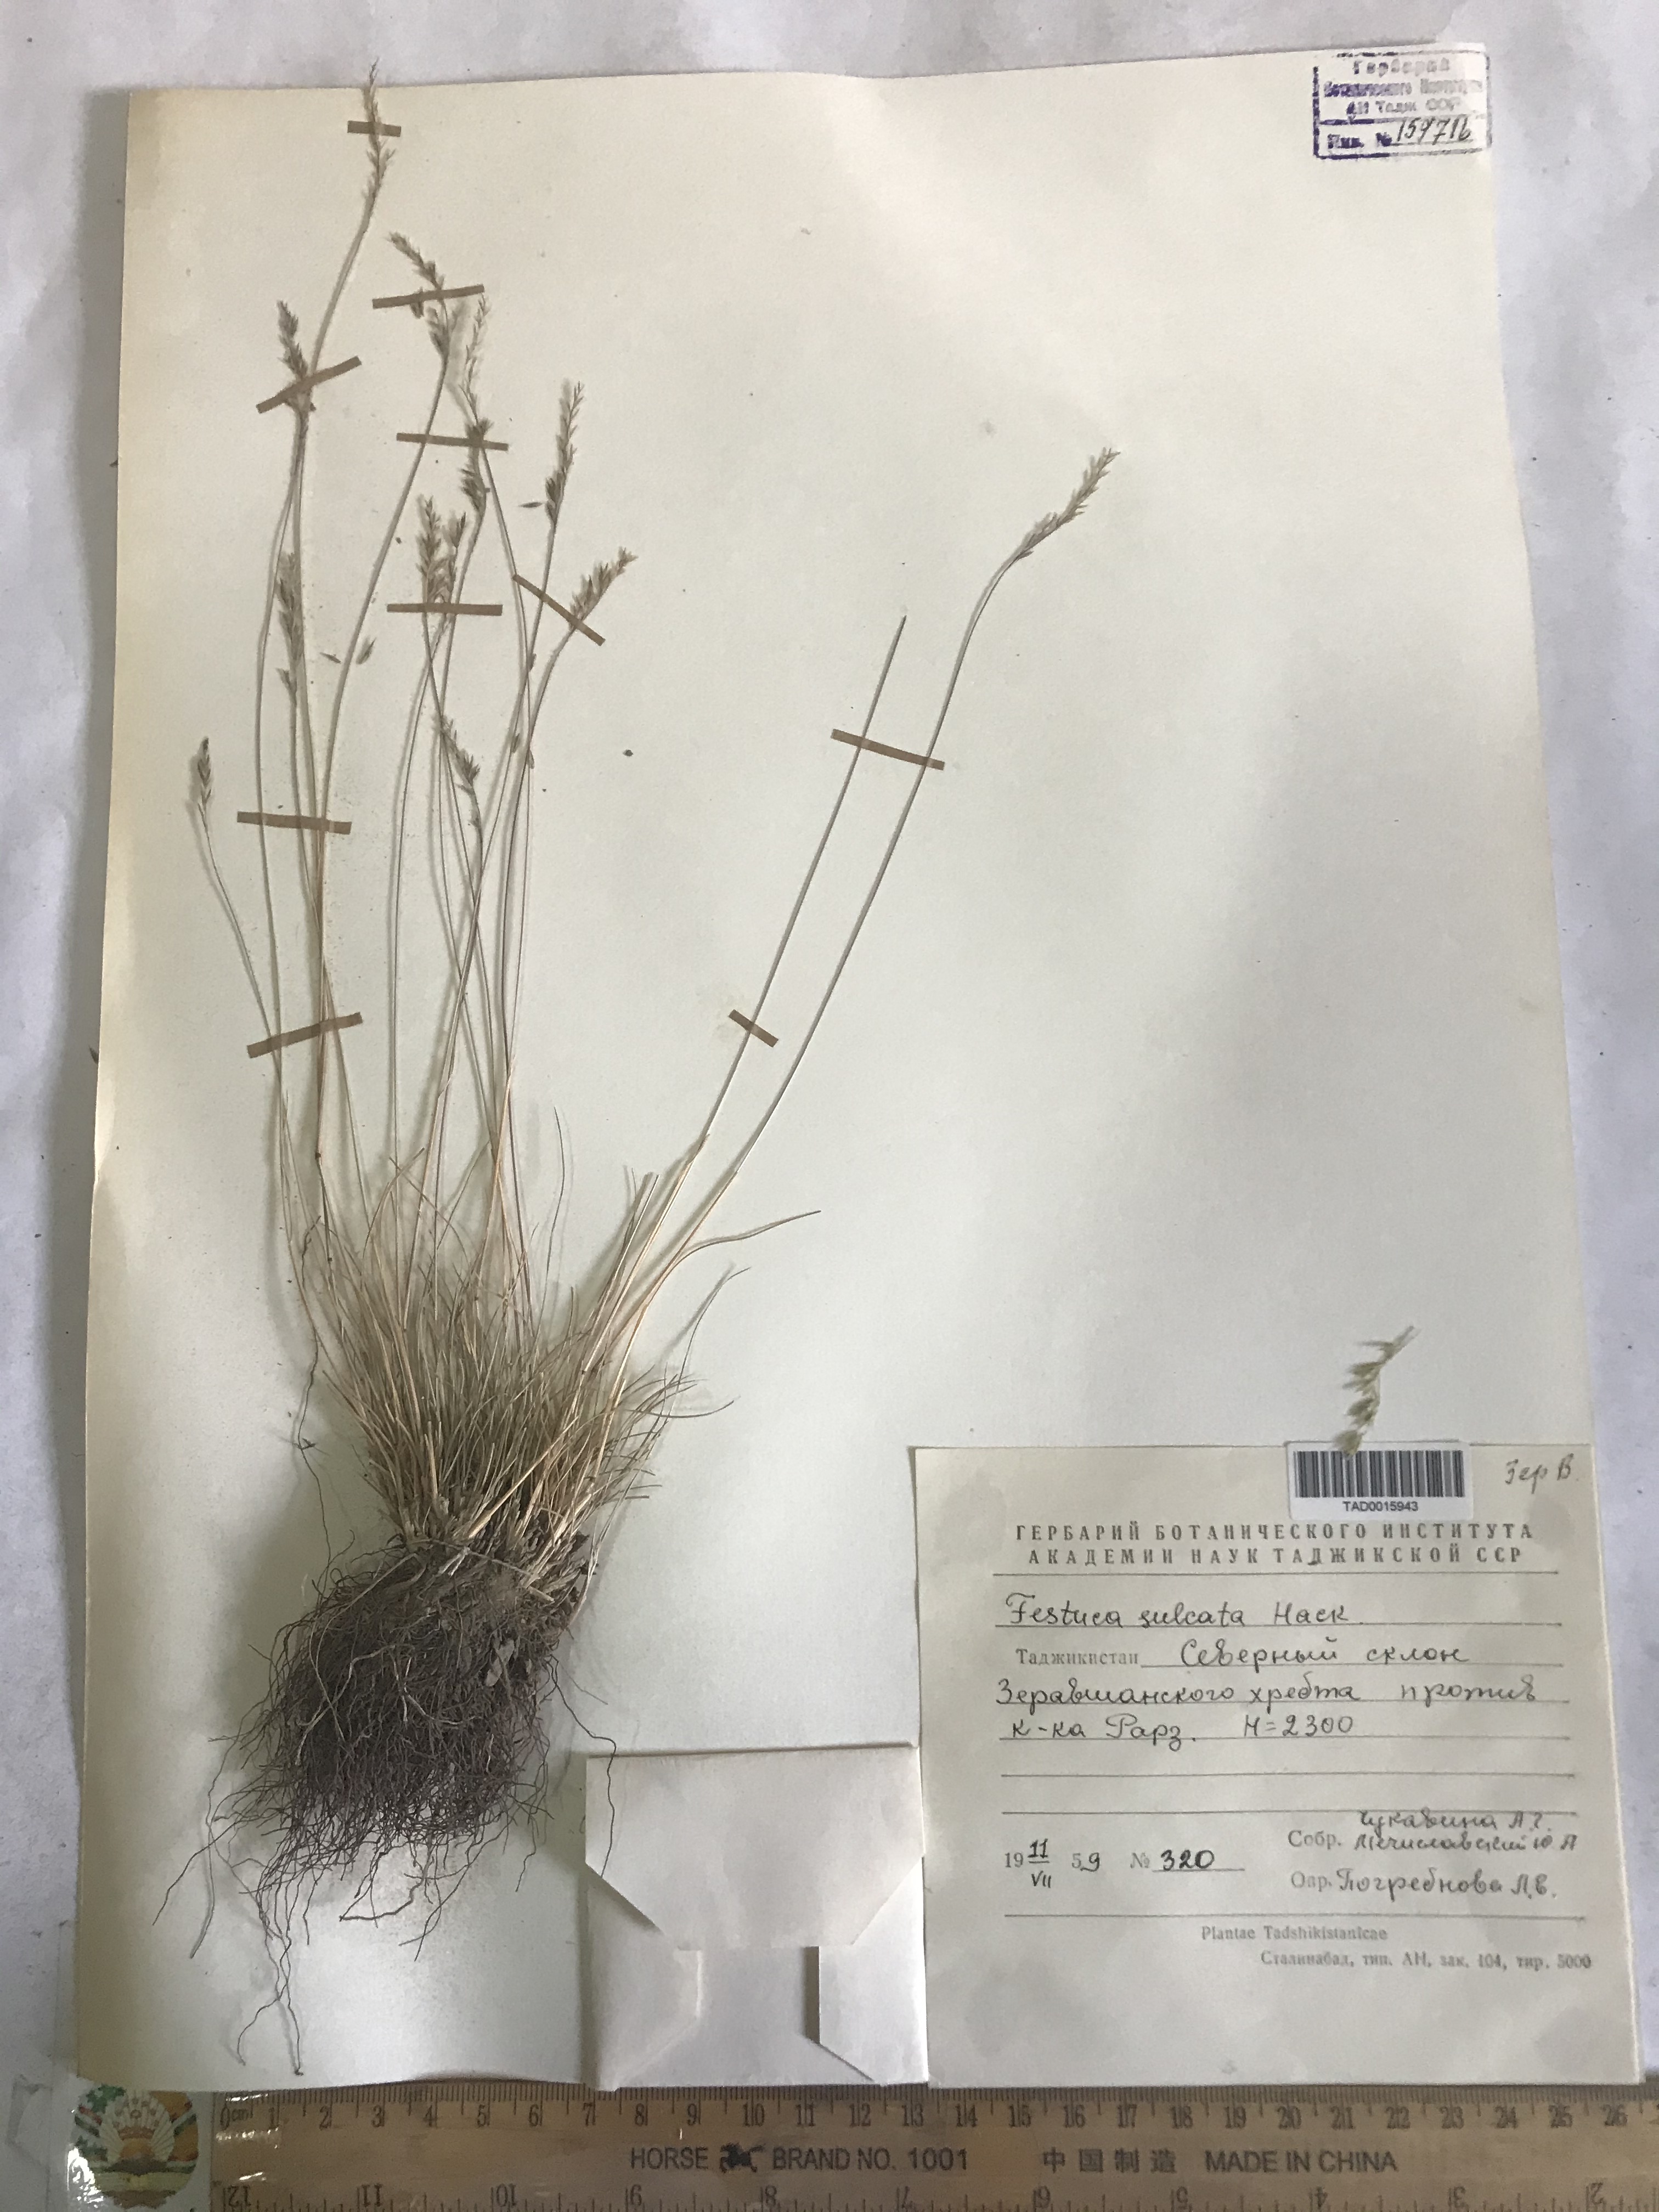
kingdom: Plantae
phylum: Tracheophyta
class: Liliopsida
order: Poales
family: Poaceae
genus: Festuca
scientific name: Festuca sulcata
